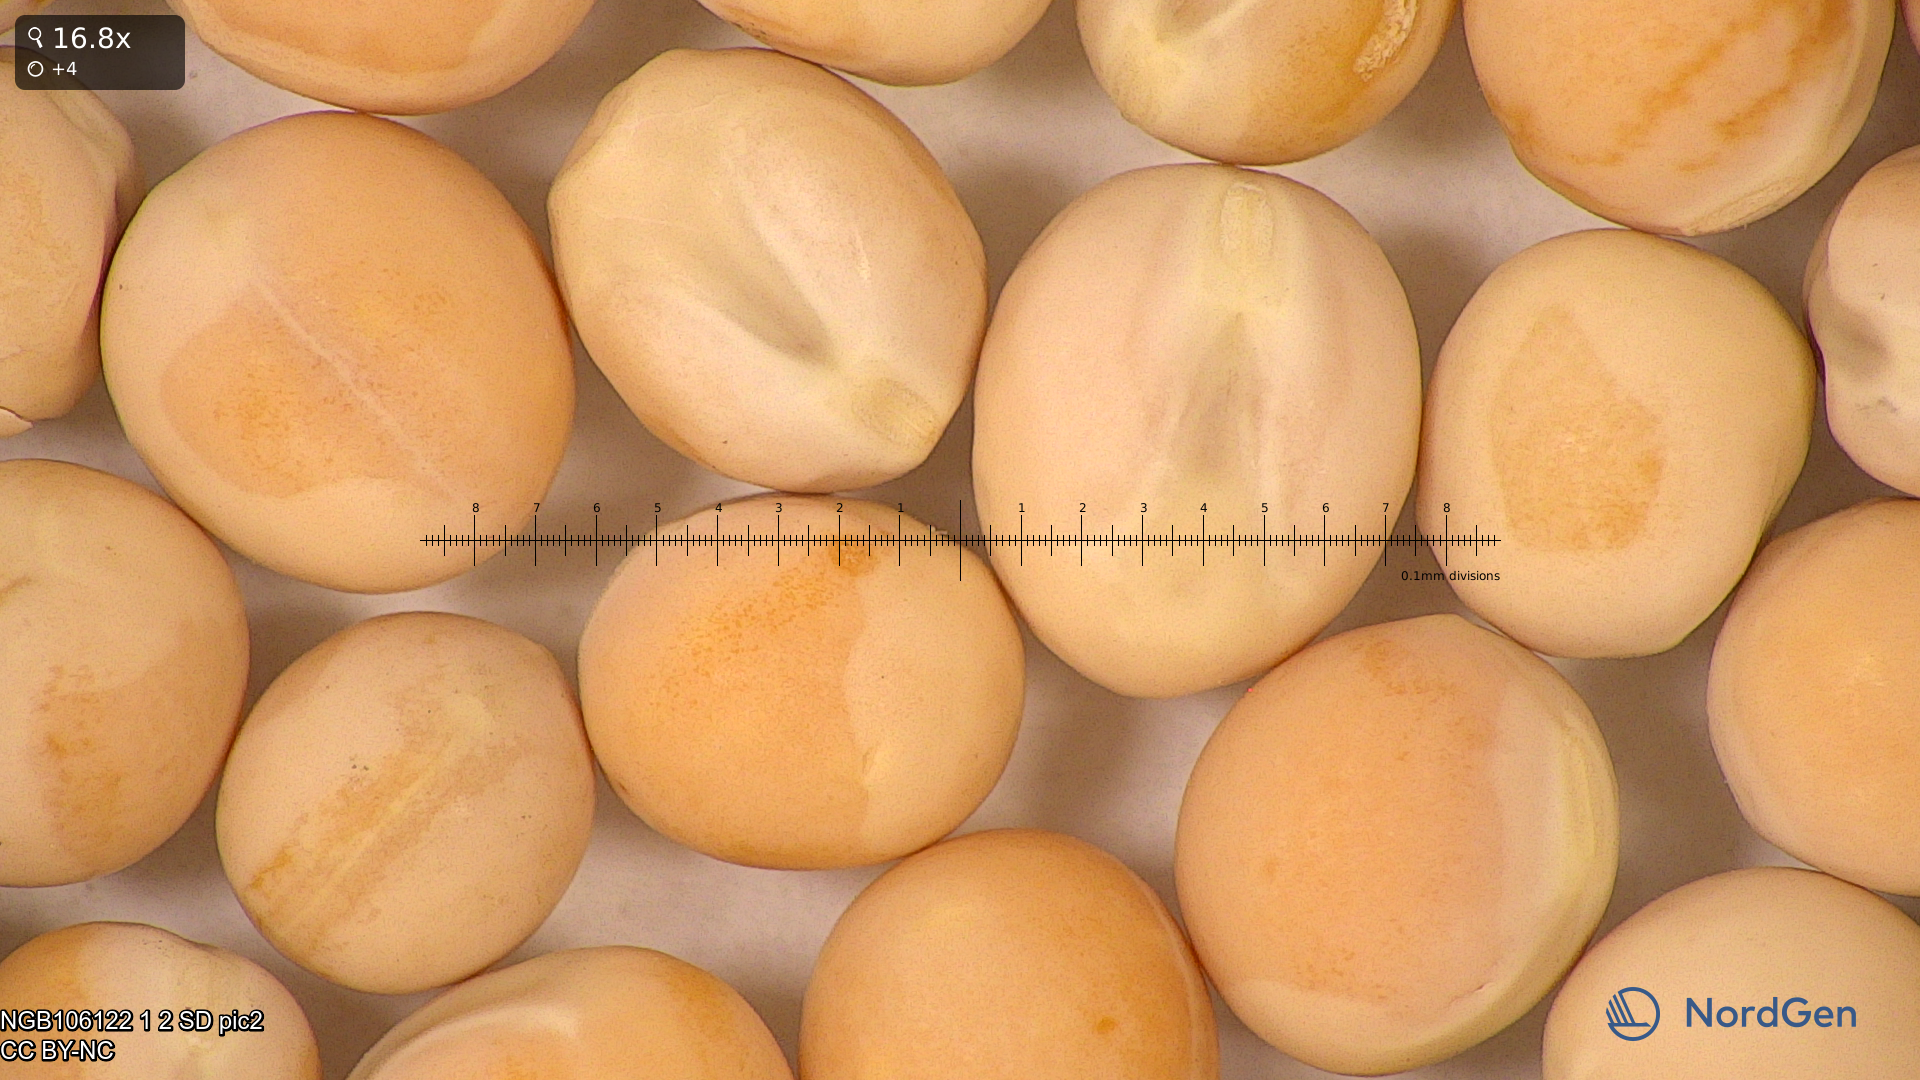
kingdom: Plantae
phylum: Tracheophyta
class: Magnoliopsida
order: Fabales
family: Fabaceae
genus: Lathyrus
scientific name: Lathyrus oleraceus
